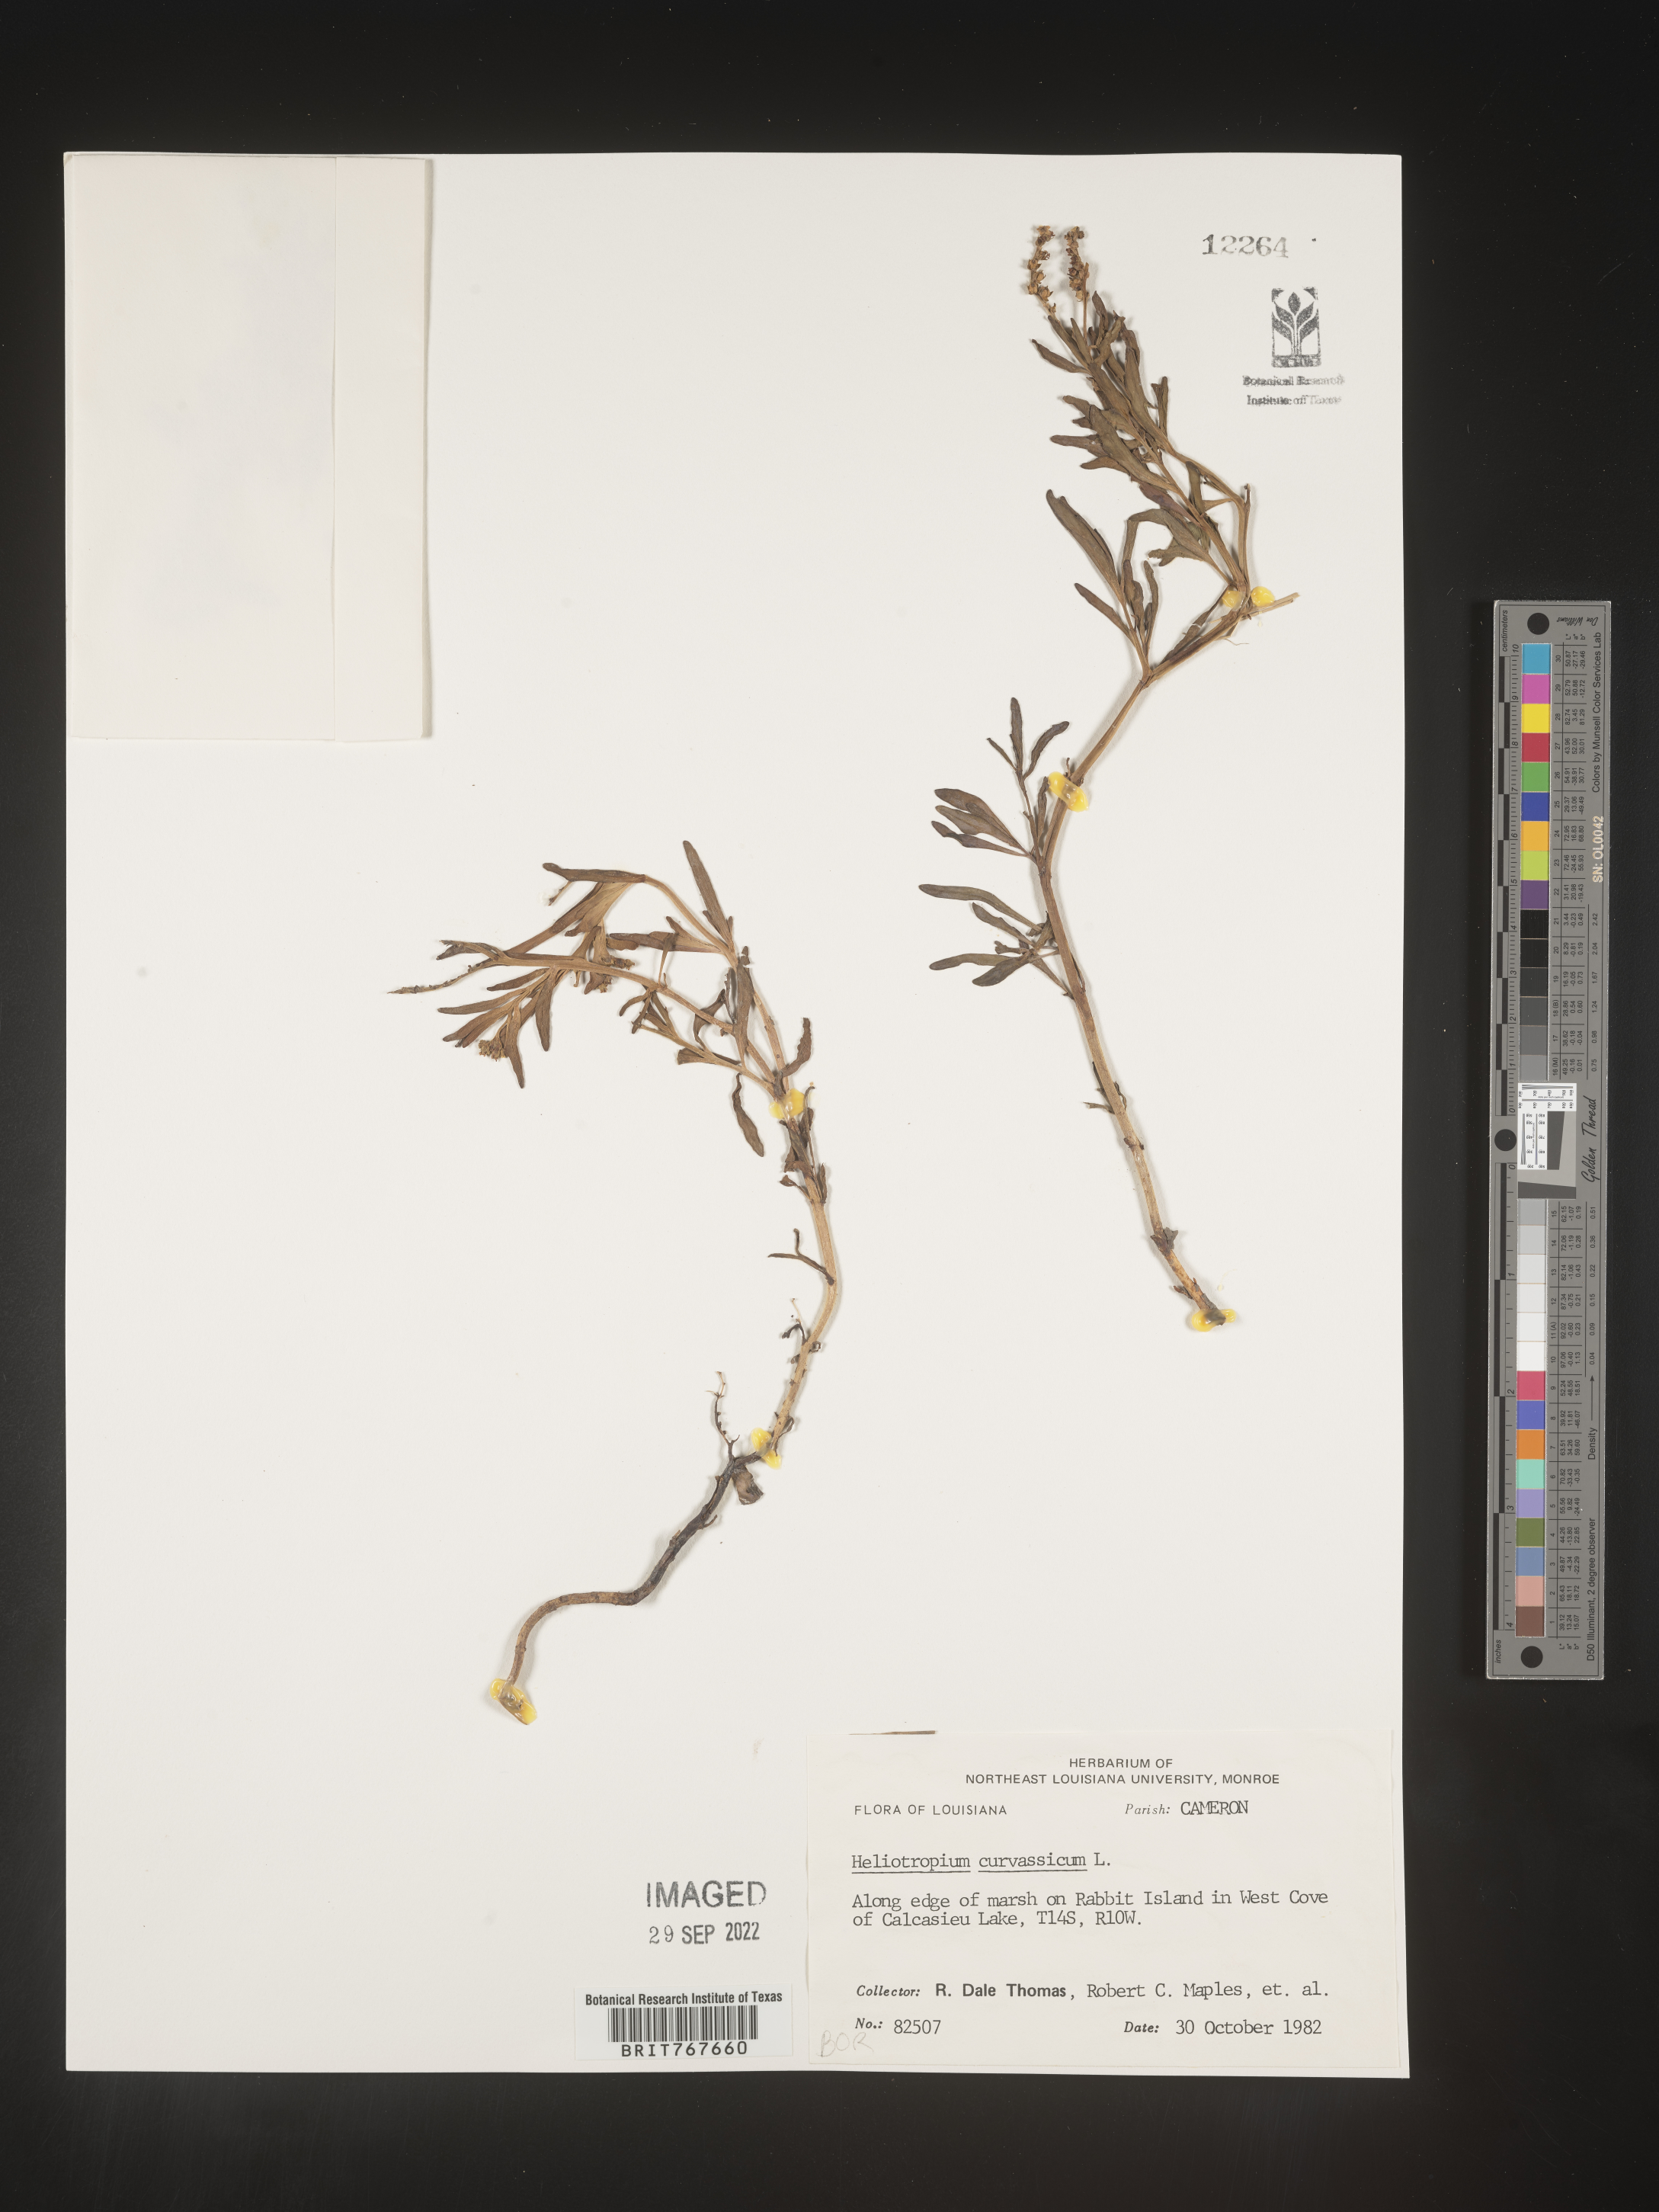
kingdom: Plantae
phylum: Tracheophyta
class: Magnoliopsida
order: Boraginales
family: Heliotropiaceae
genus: Heliotropium
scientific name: Heliotropium curassavicum
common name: Seaside heliotrope
